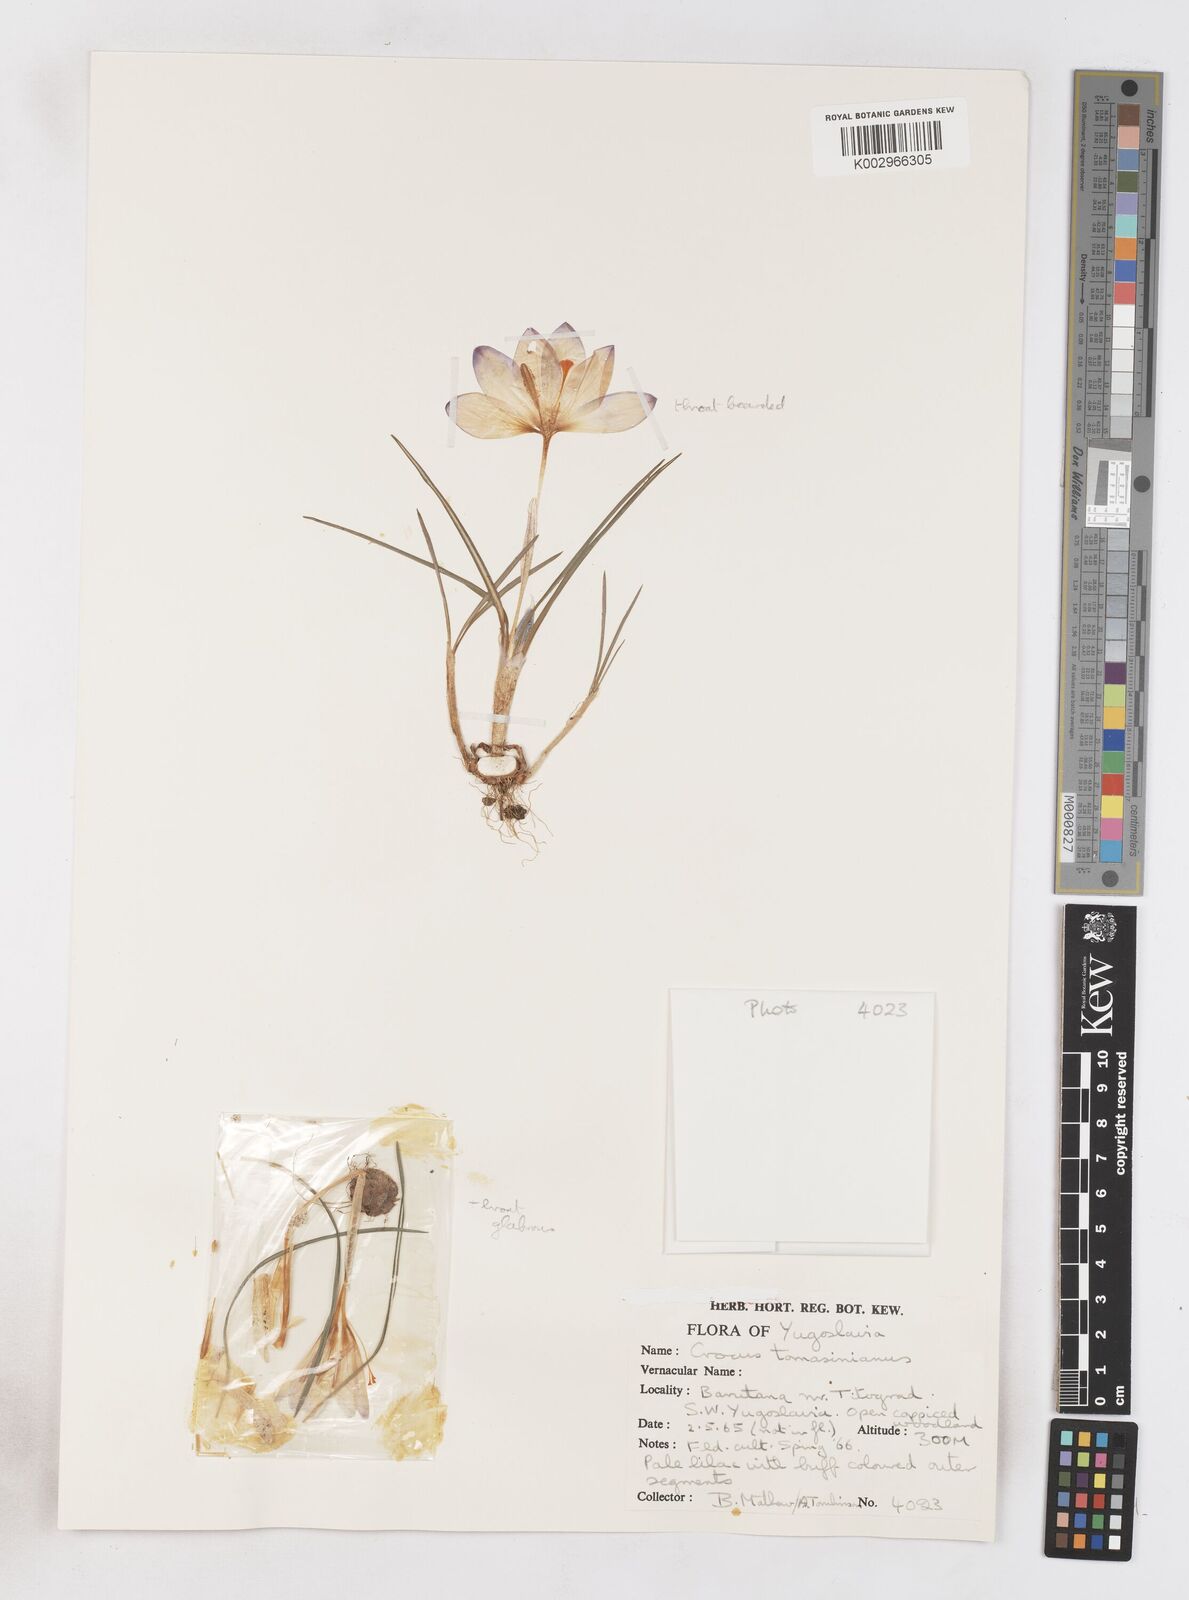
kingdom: Plantae
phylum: Tracheophyta
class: Liliopsida
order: Asparagales
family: Iridaceae
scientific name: Iridaceae
